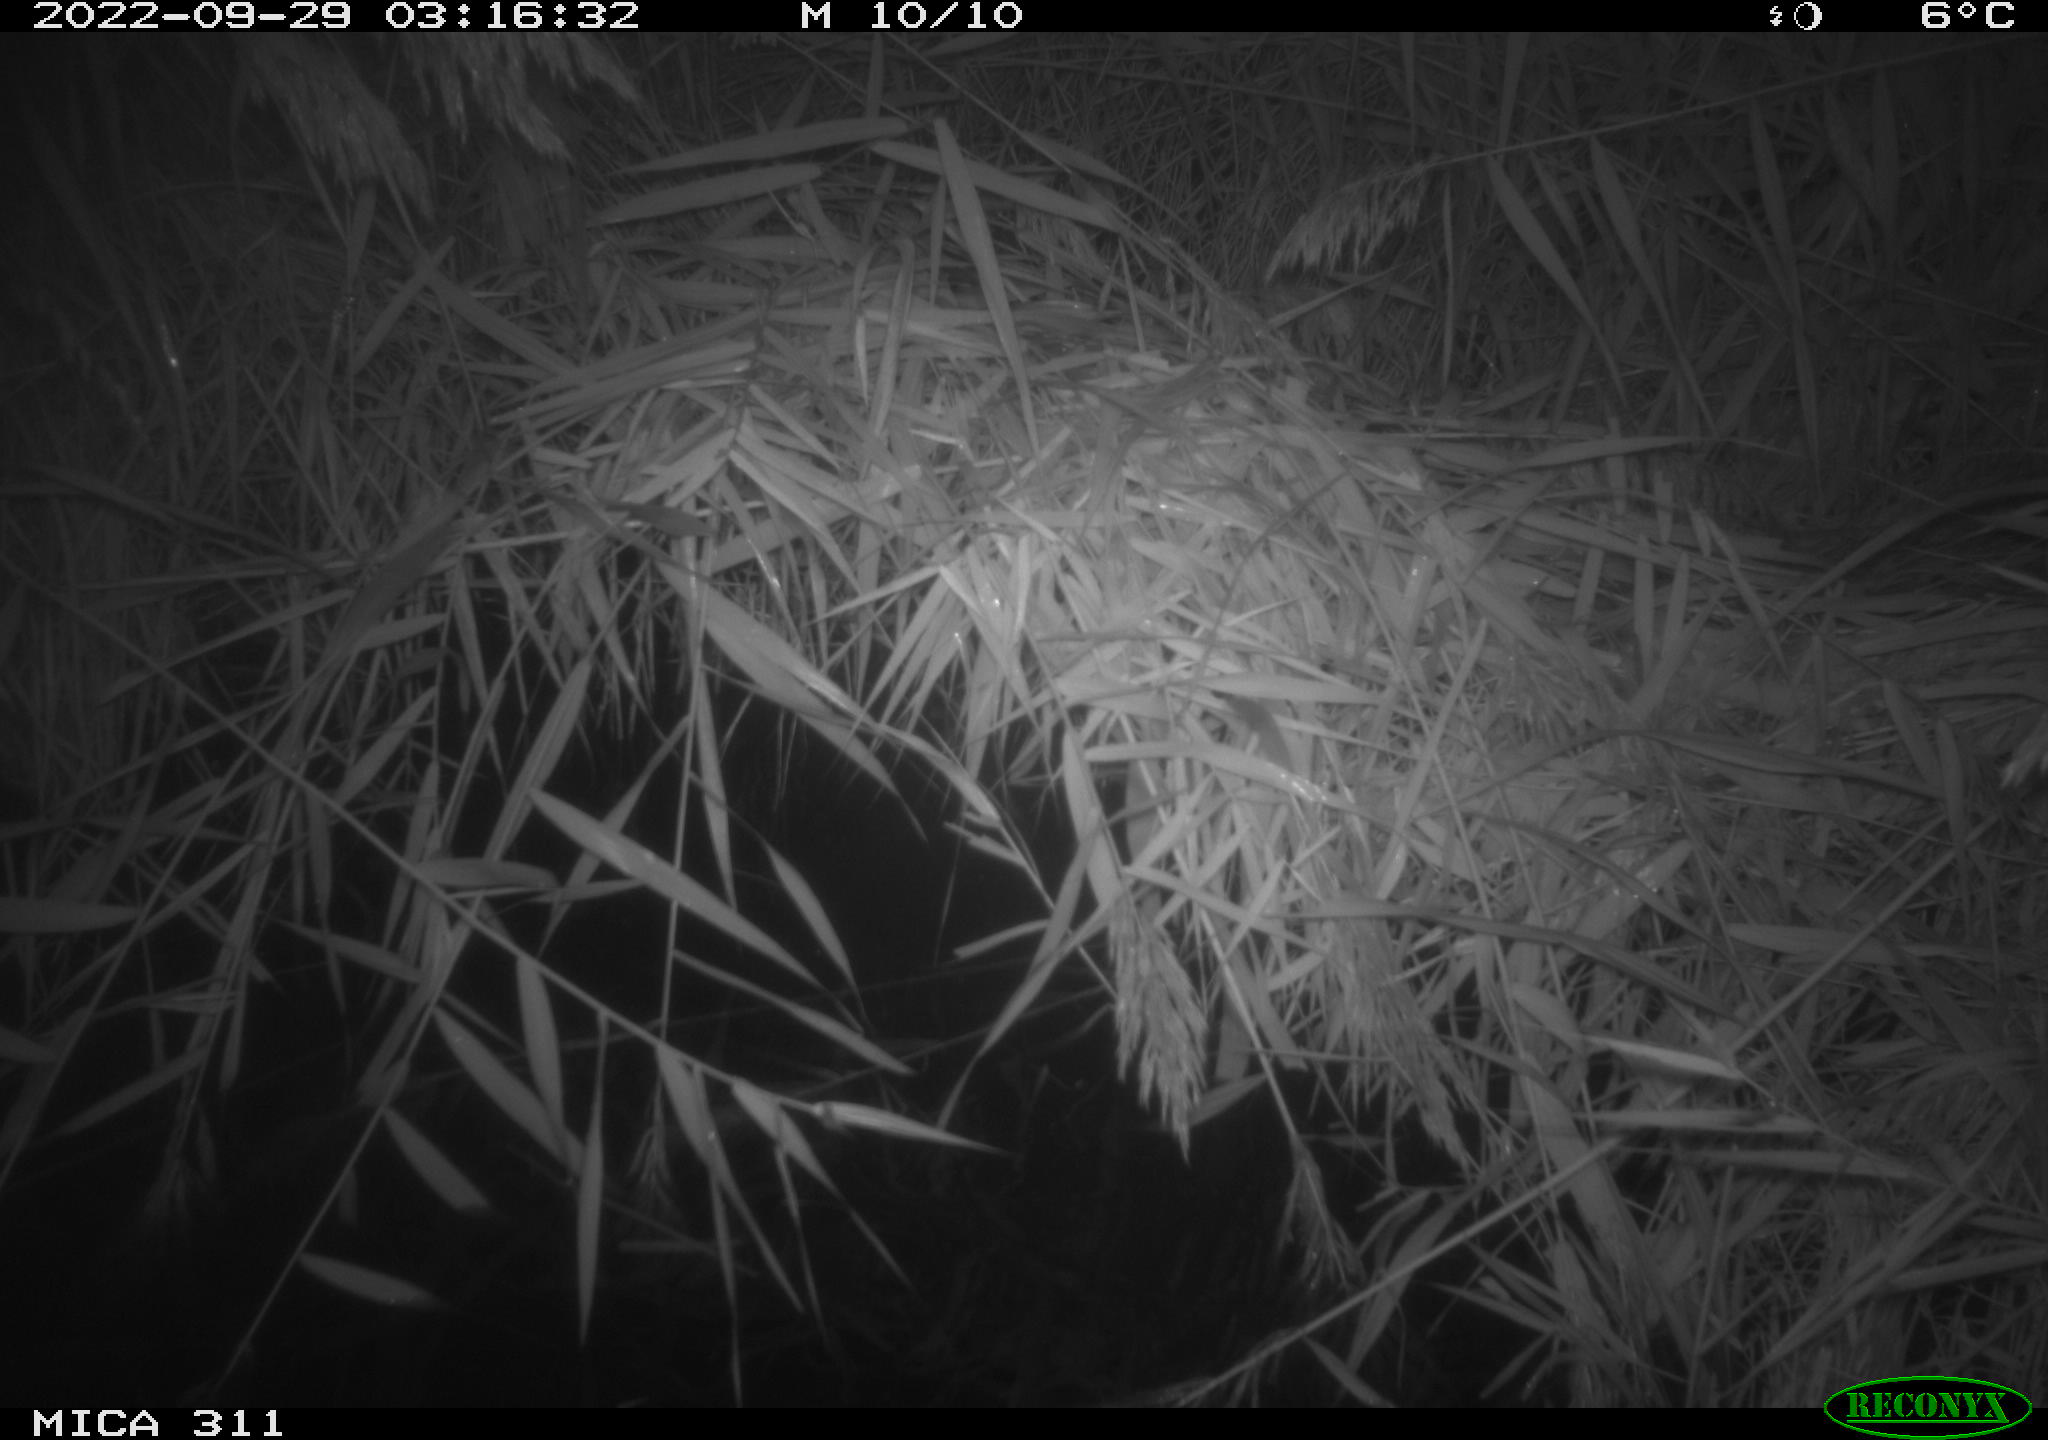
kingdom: Animalia
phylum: Chordata
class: Mammalia
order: Rodentia
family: Muridae
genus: Rattus
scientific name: Rattus norvegicus
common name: Brown rat
